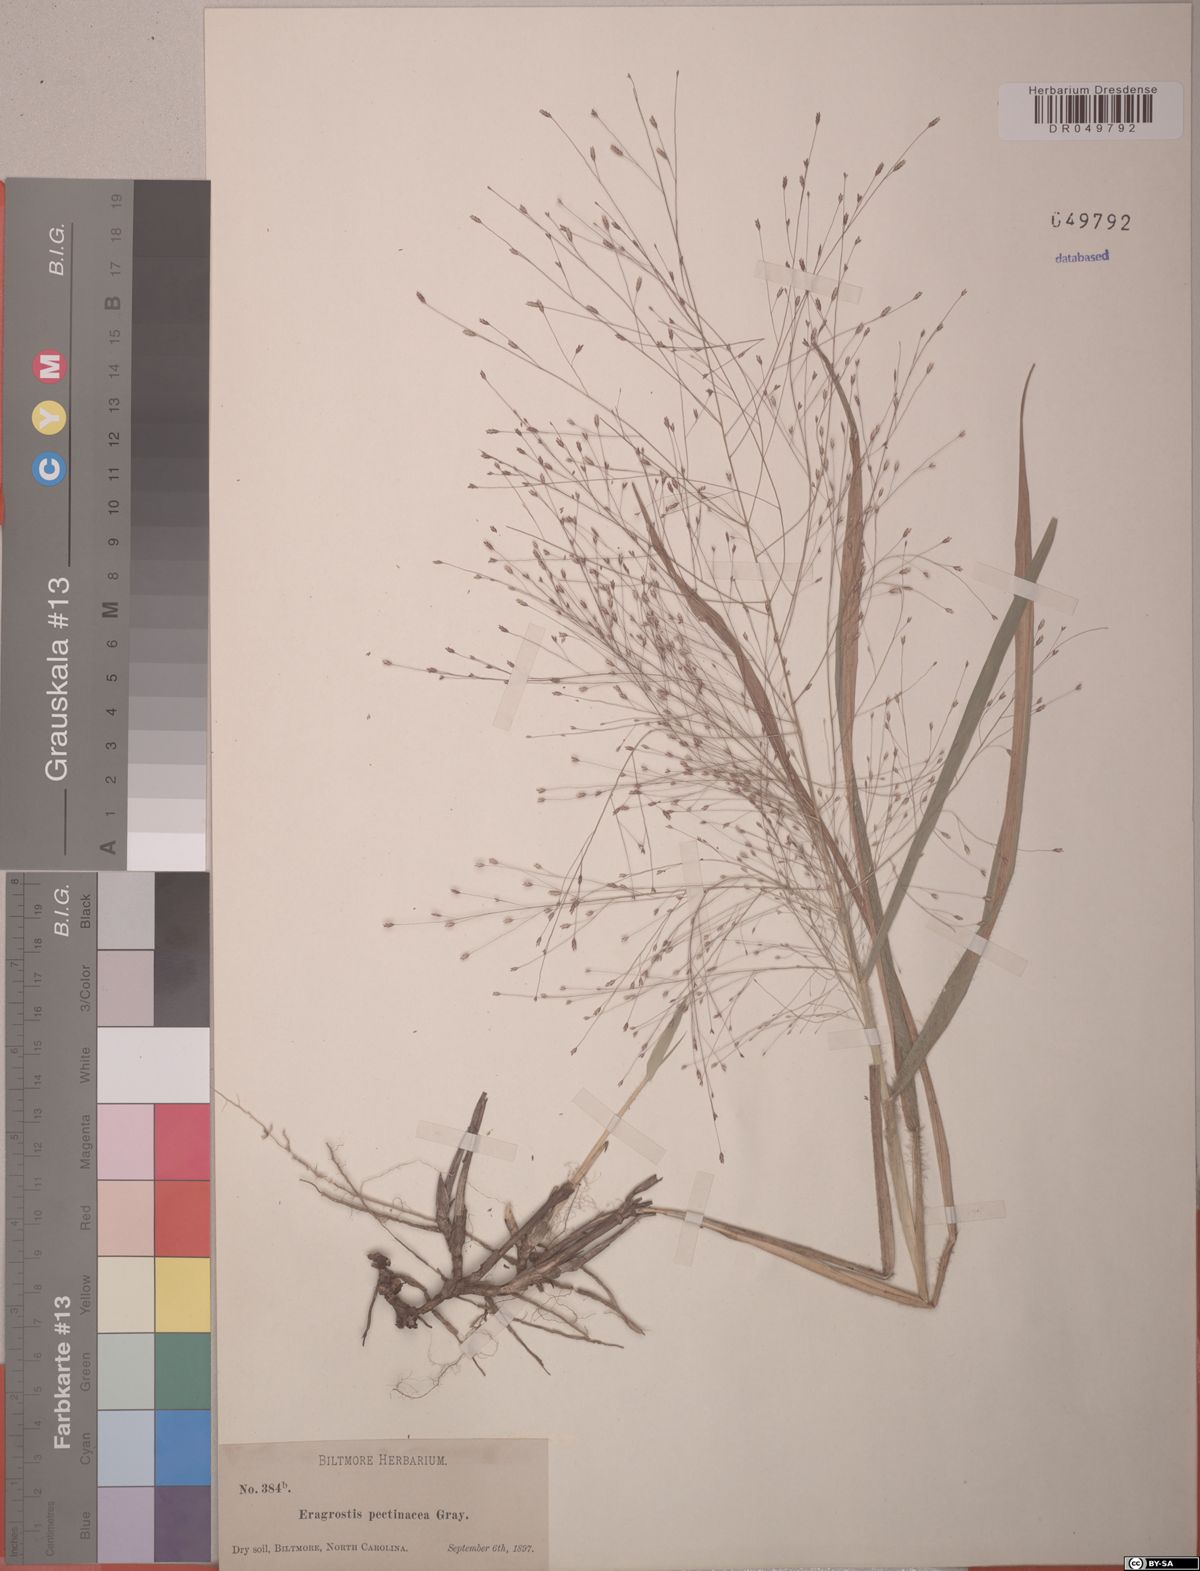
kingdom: Plantae
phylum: Tracheophyta
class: Liliopsida
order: Poales
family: Poaceae
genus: Eragrostis
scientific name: Eragrostis pectinacea
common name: Tufted lovegrass
